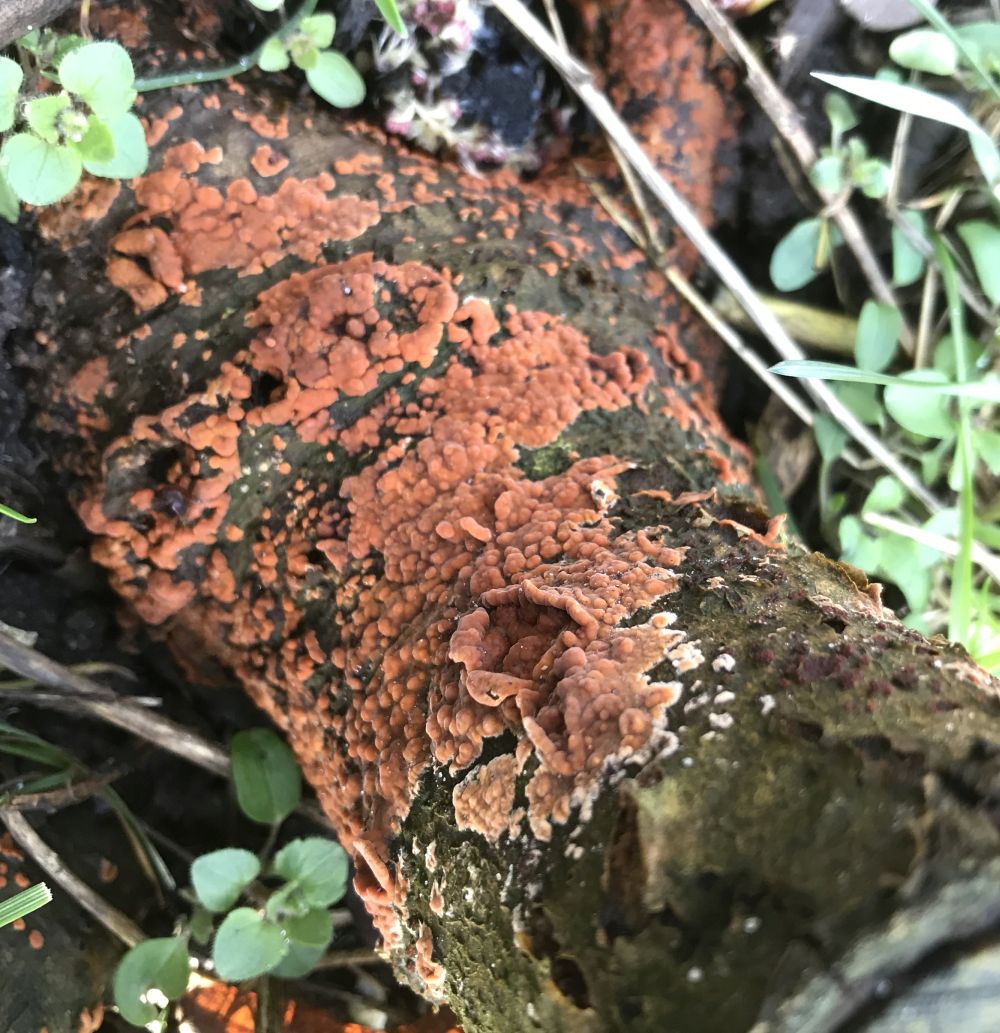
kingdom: Fungi
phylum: Basidiomycota
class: Agaricomycetes
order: Russulales
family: Peniophoraceae
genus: Peniophora
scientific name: Peniophora incarnata
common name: laksefarvet voksskind
